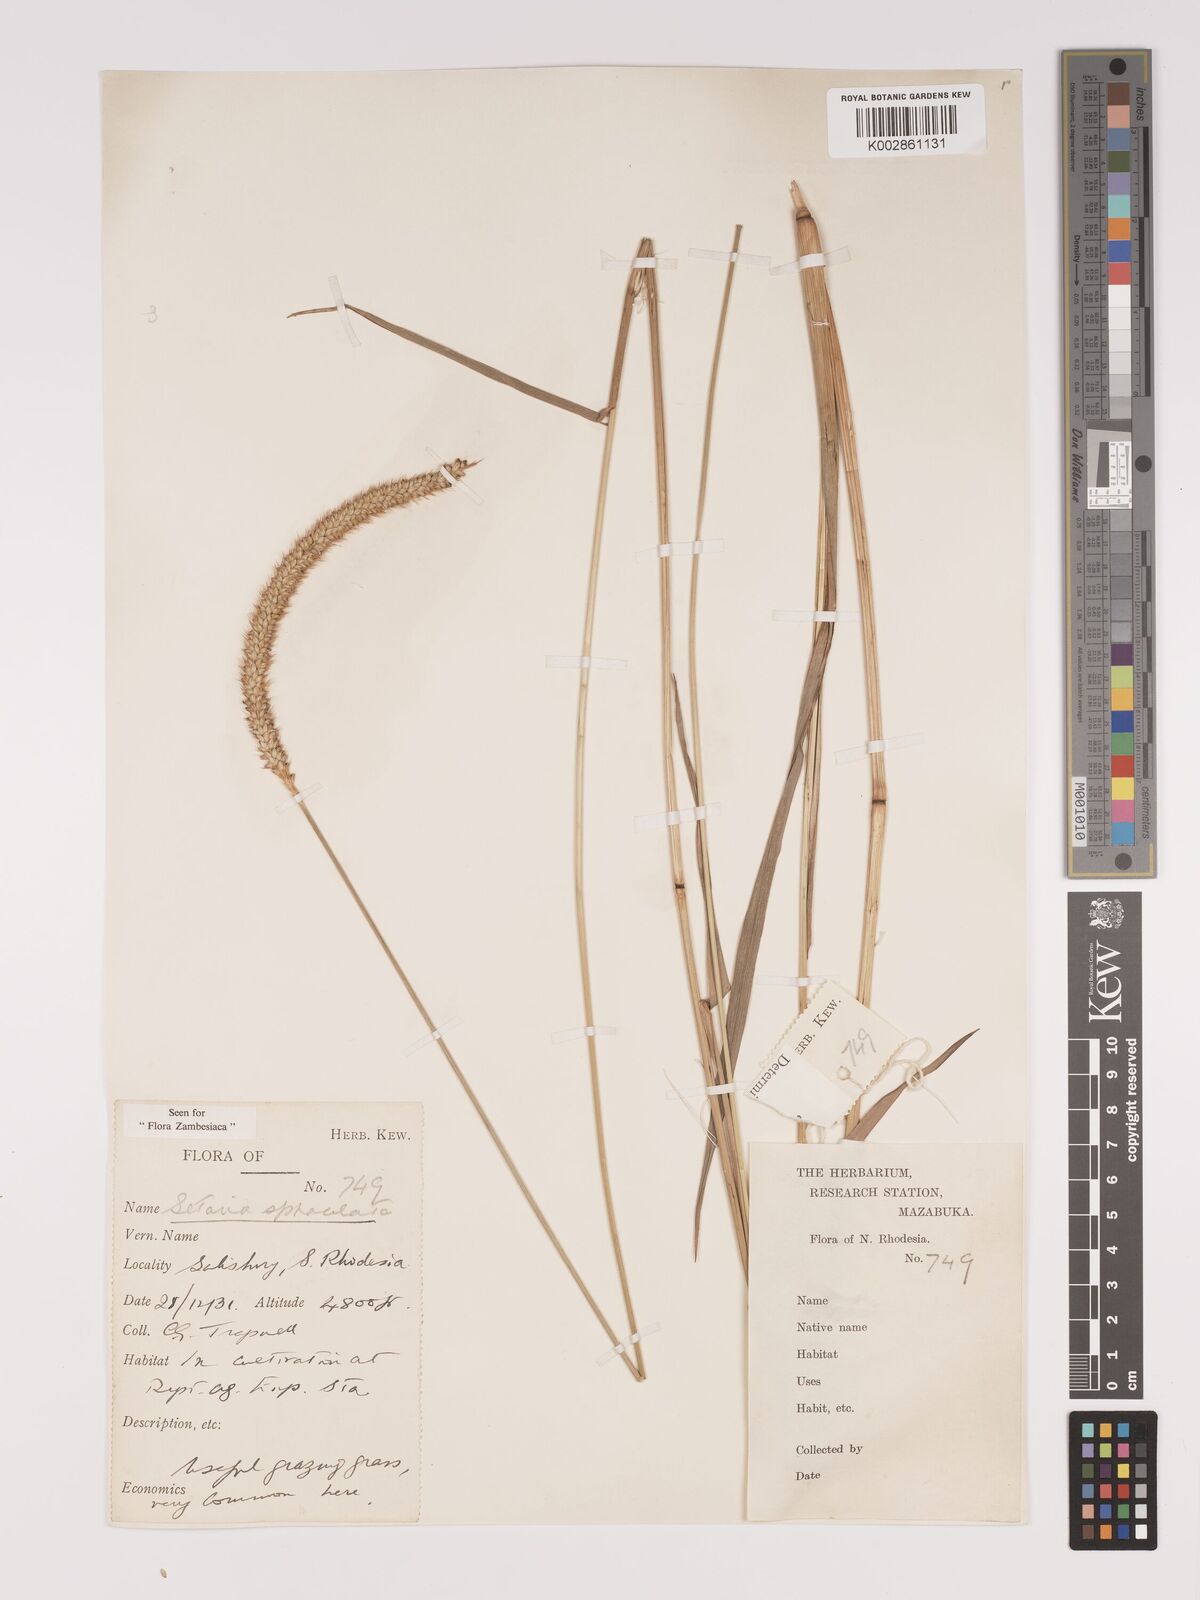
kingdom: Plantae
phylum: Tracheophyta
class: Liliopsida
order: Poales
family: Poaceae
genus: Setaria
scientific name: Setaria sphacelata
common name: African bristlegrass
